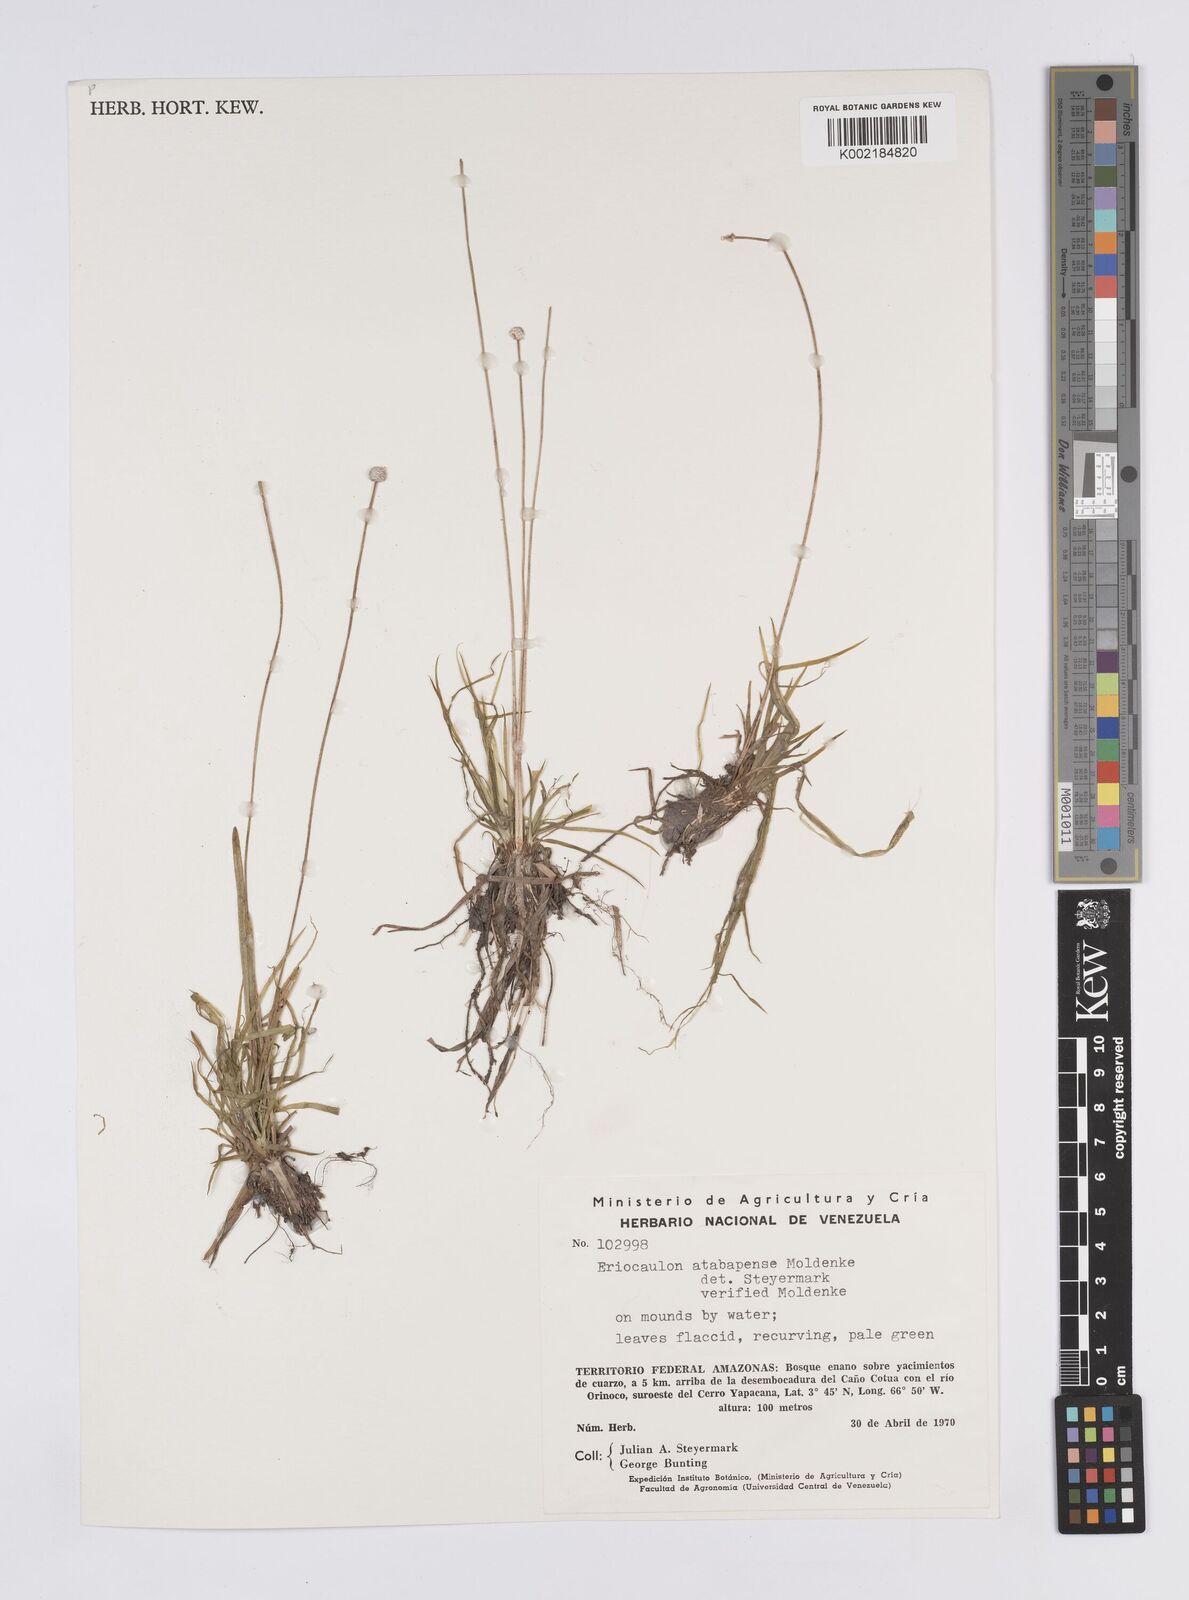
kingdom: Plantae
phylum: Tracheophyta
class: Liliopsida
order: Poales
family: Eriocaulaceae
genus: Eriocaulon
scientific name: Eriocaulon tenuifolium
